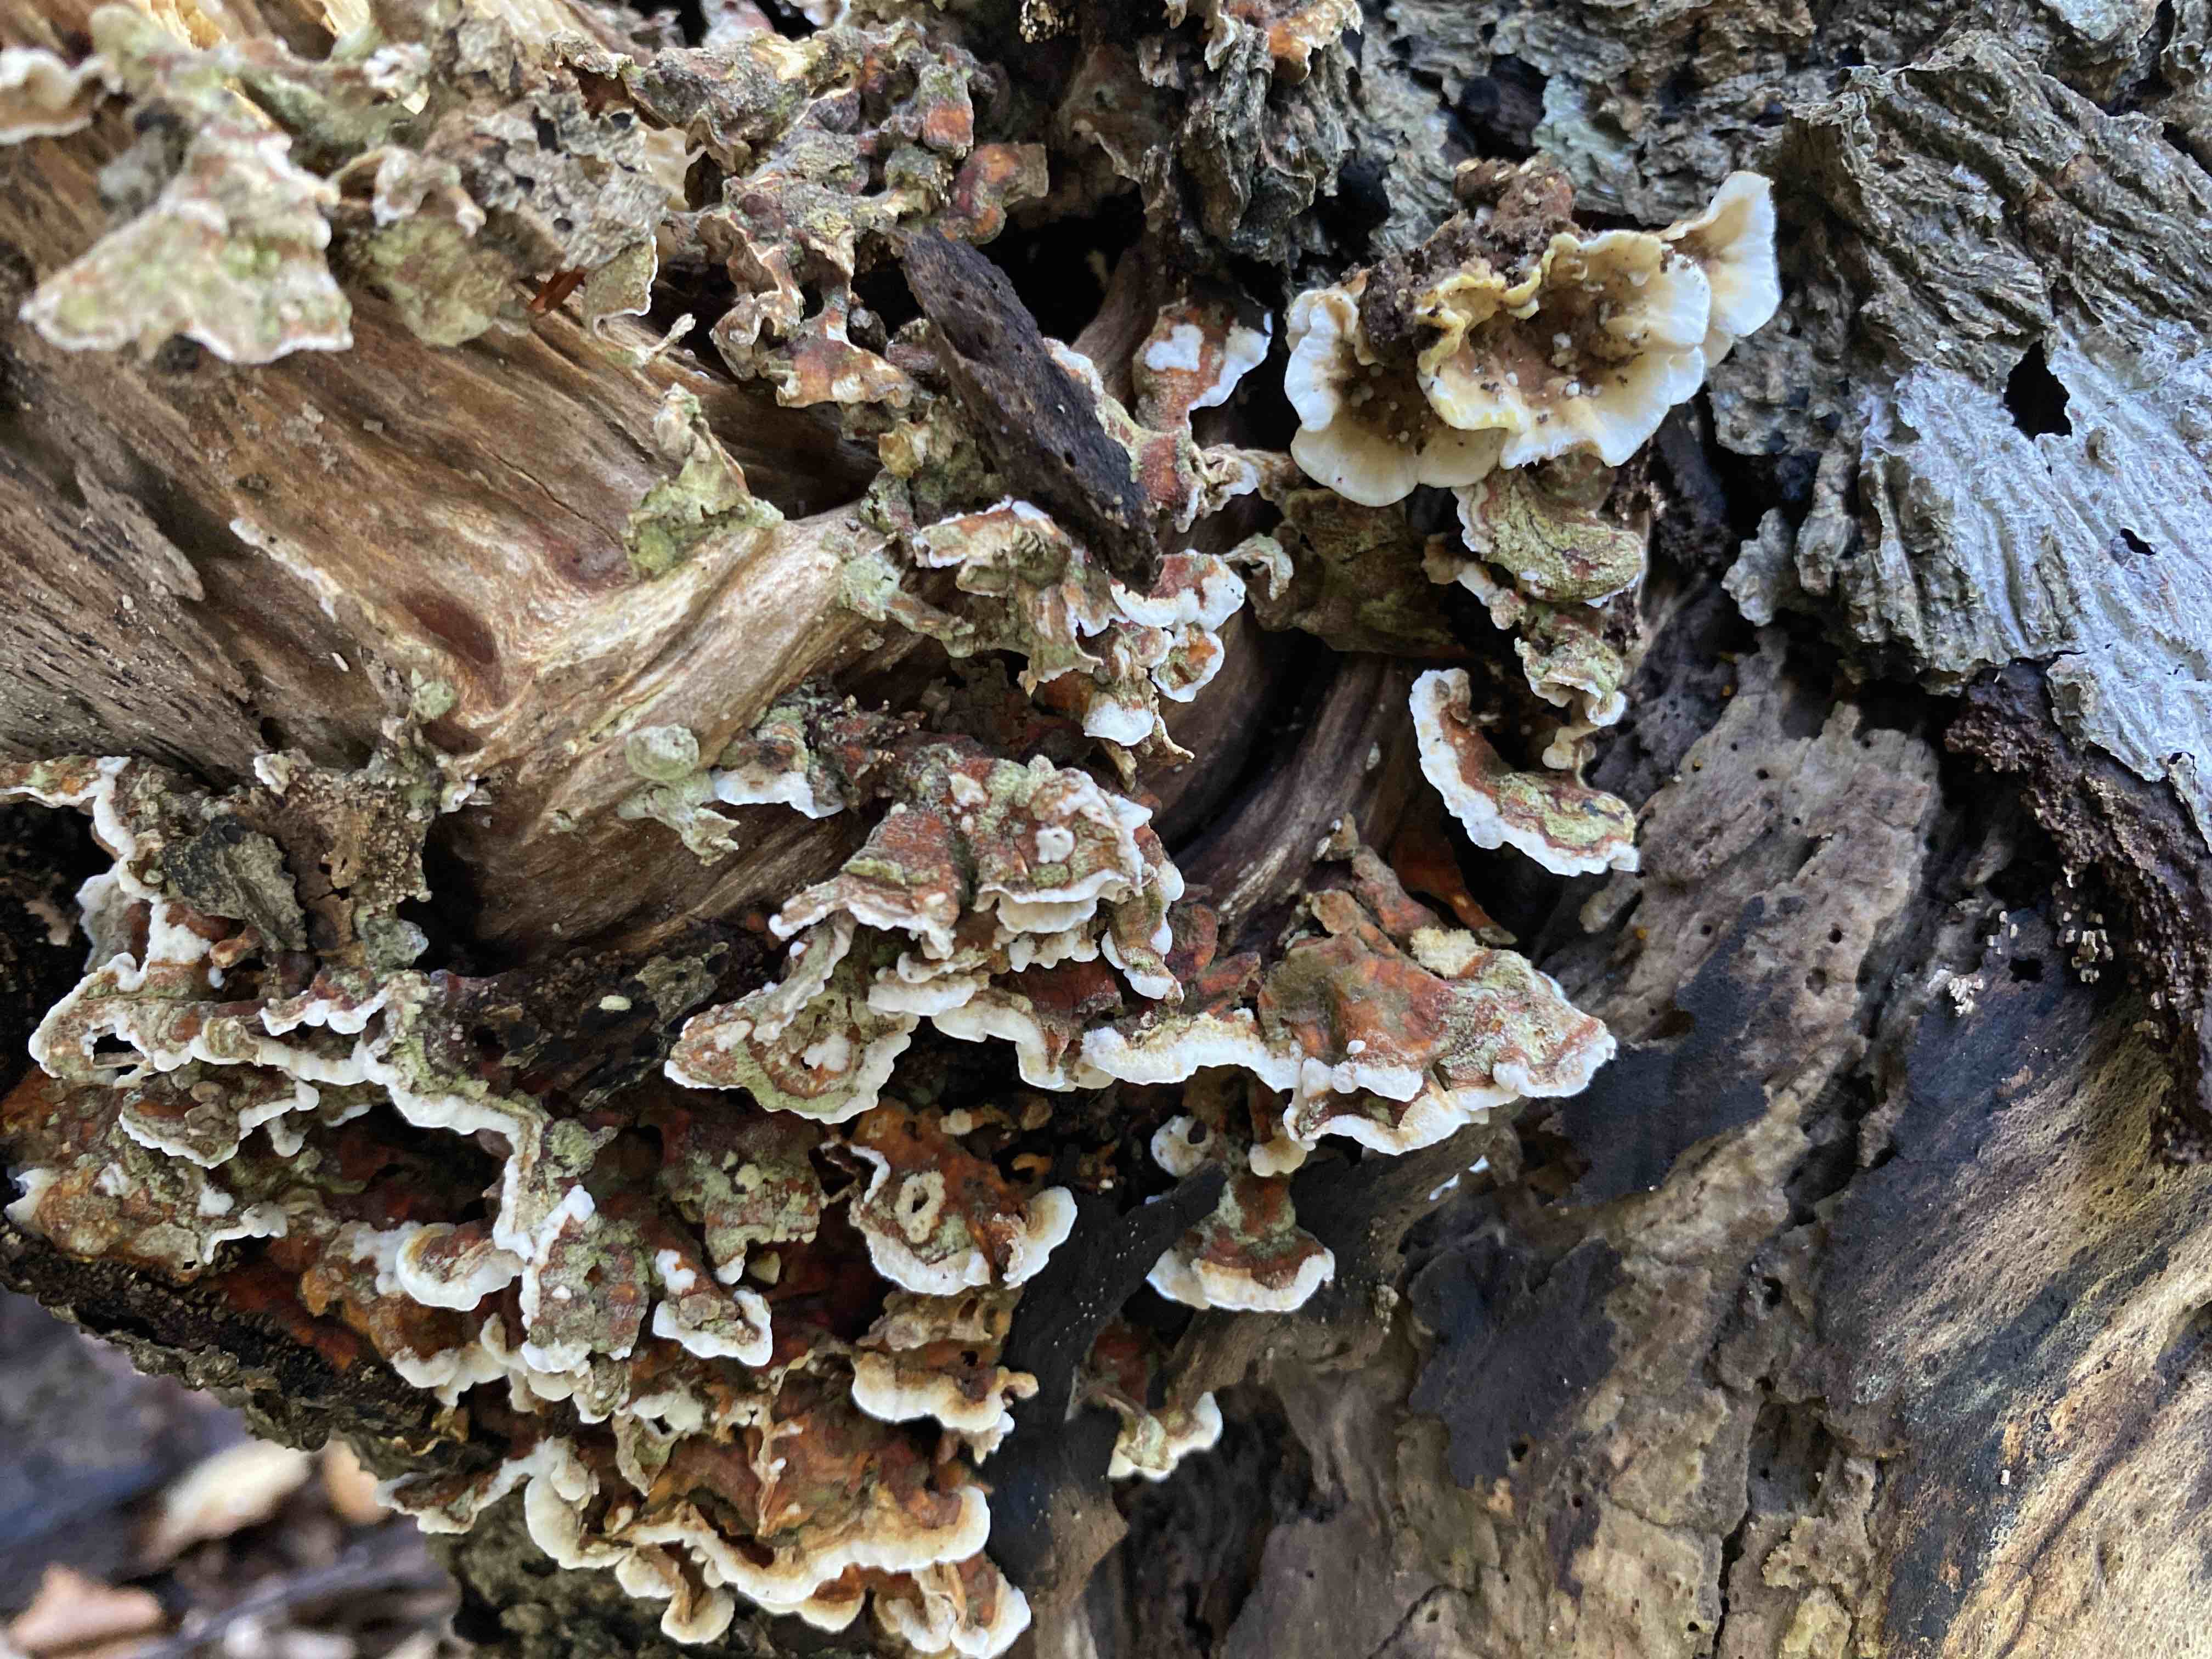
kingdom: Fungi
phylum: Basidiomycota
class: Agaricomycetes
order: Russulales
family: Stereaceae
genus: Stereum
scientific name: Stereum hirsutum
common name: håret lædersvamp
